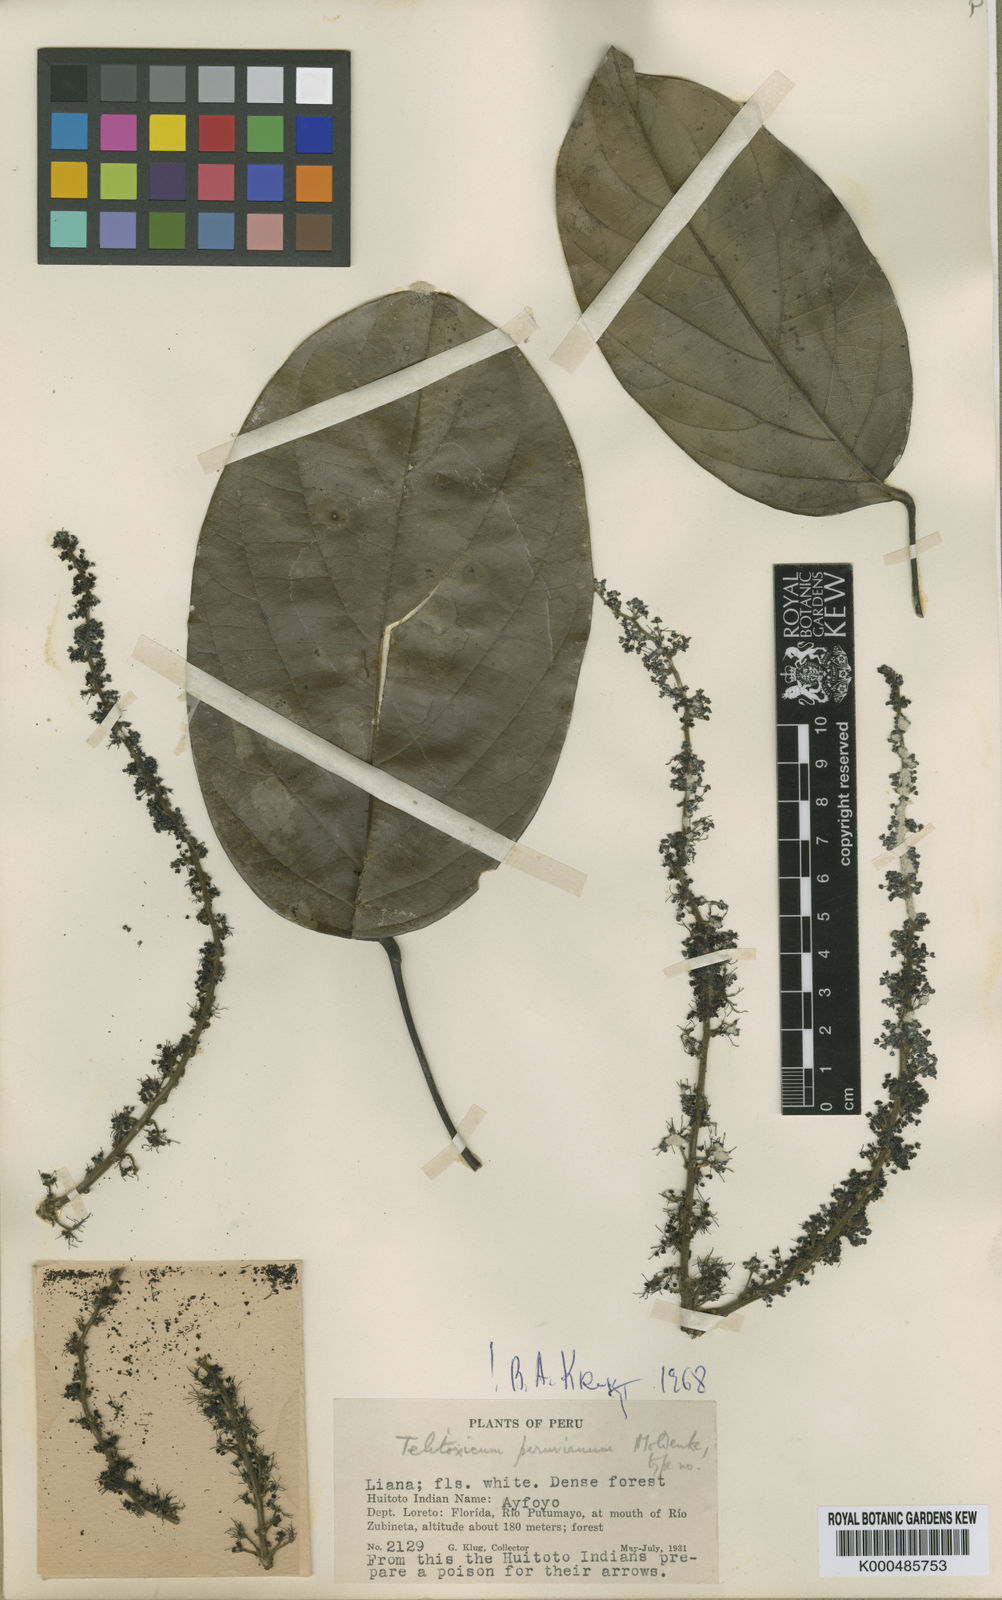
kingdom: Plantae
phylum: Tracheophyta
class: Magnoliopsida
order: Ranunculales
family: Menispermaceae
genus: Telitoxicum
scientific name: Telitoxicum peruvianum
